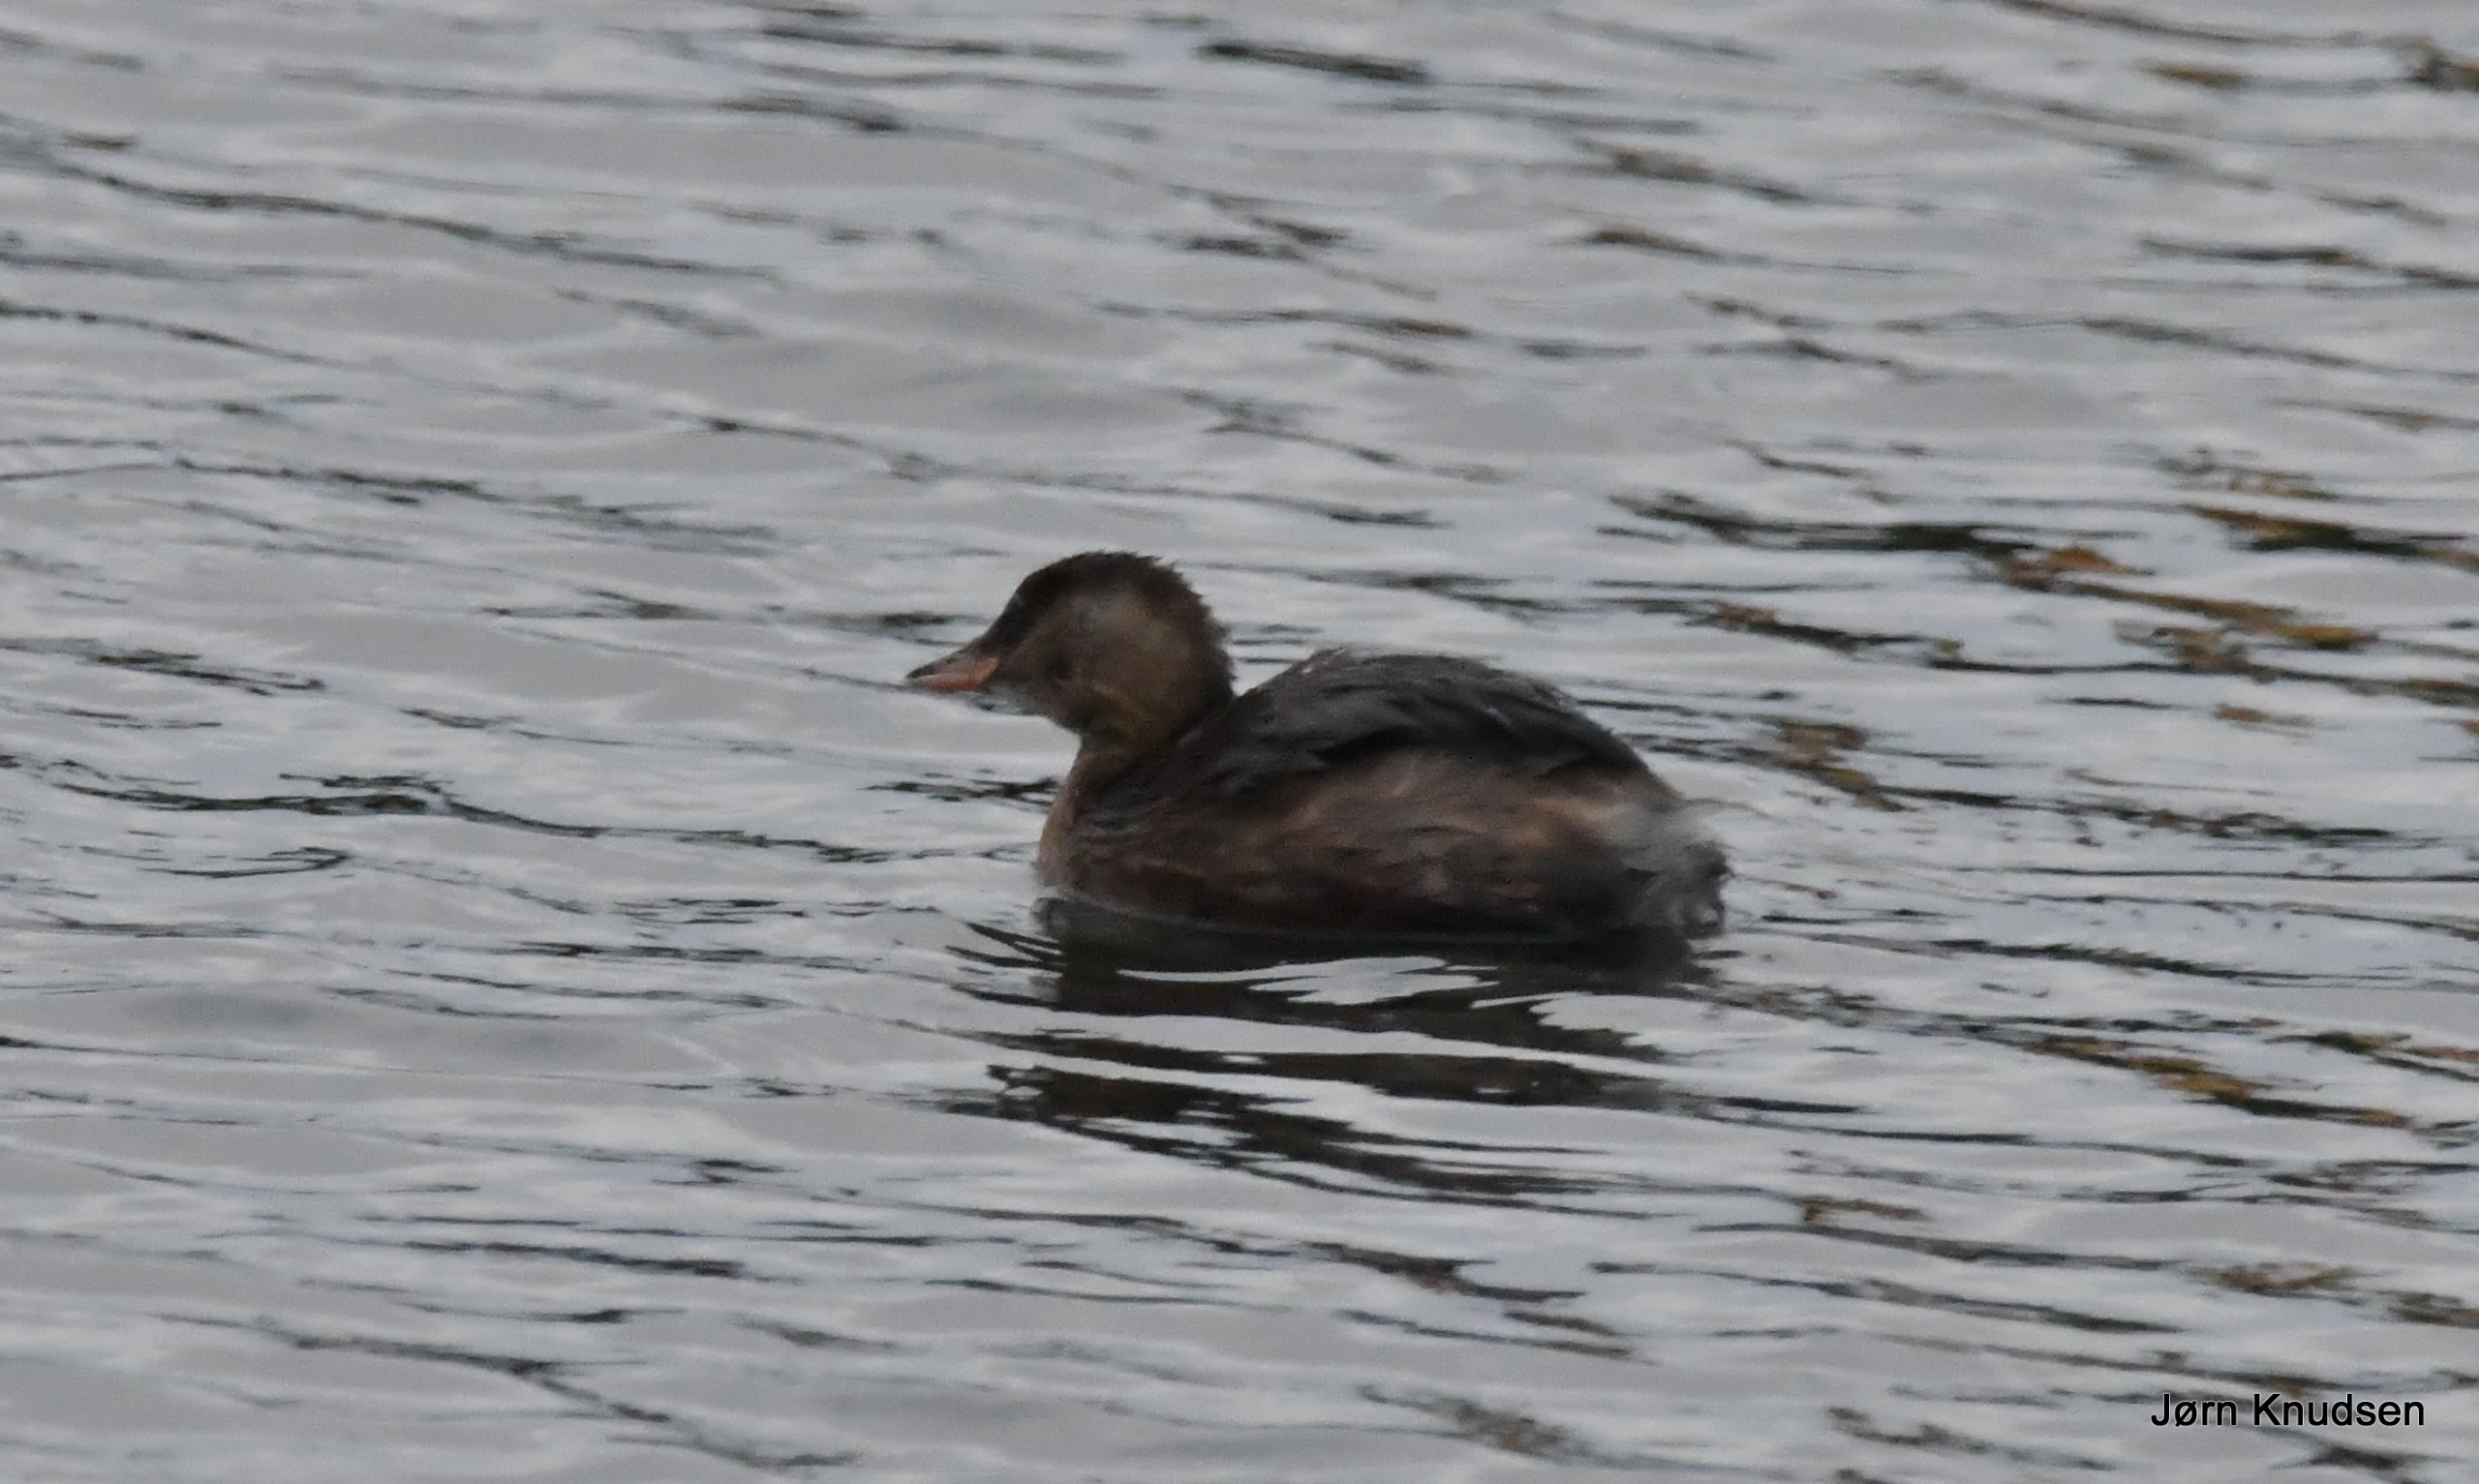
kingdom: Animalia
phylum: Chordata
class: Aves
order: Podicipediformes
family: Podicipedidae
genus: Tachybaptus
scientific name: Tachybaptus ruficollis
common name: Lille lappedykker
